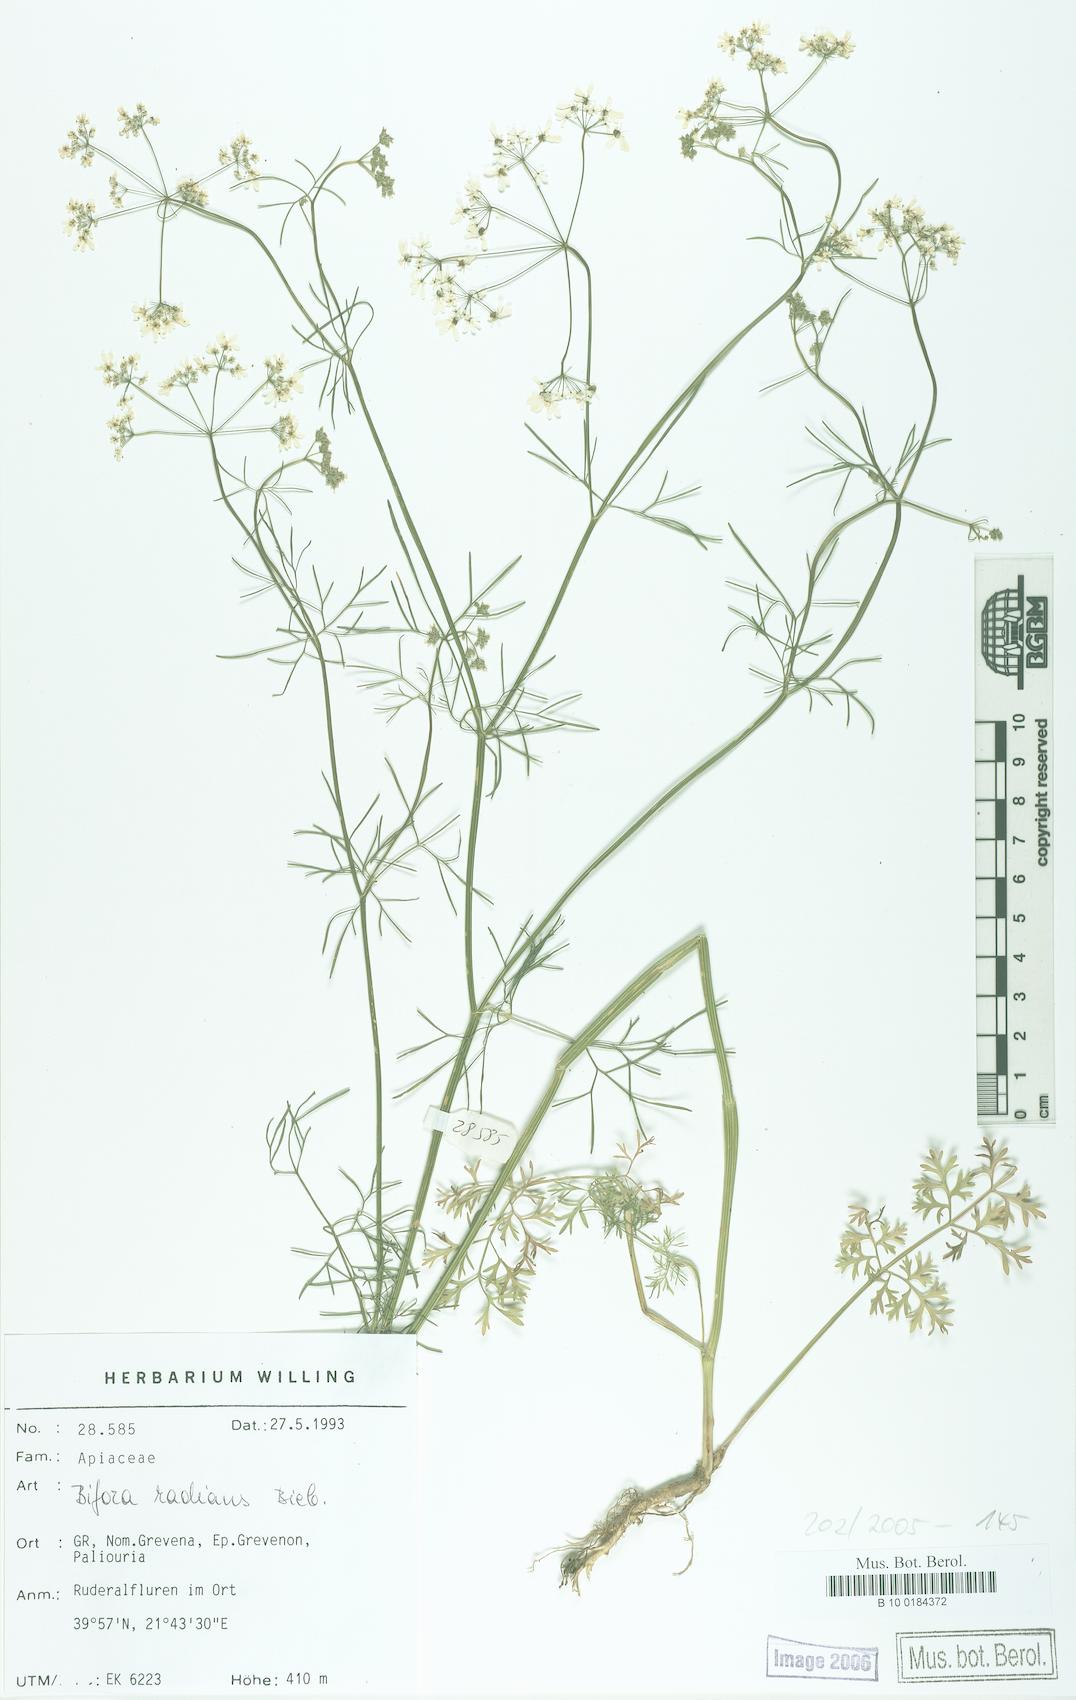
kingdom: Plantae
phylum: Tracheophyta
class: Magnoliopsida
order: Apiales
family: Apiaceae
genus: Bifora
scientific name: Bifora radians
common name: Wild bishop
